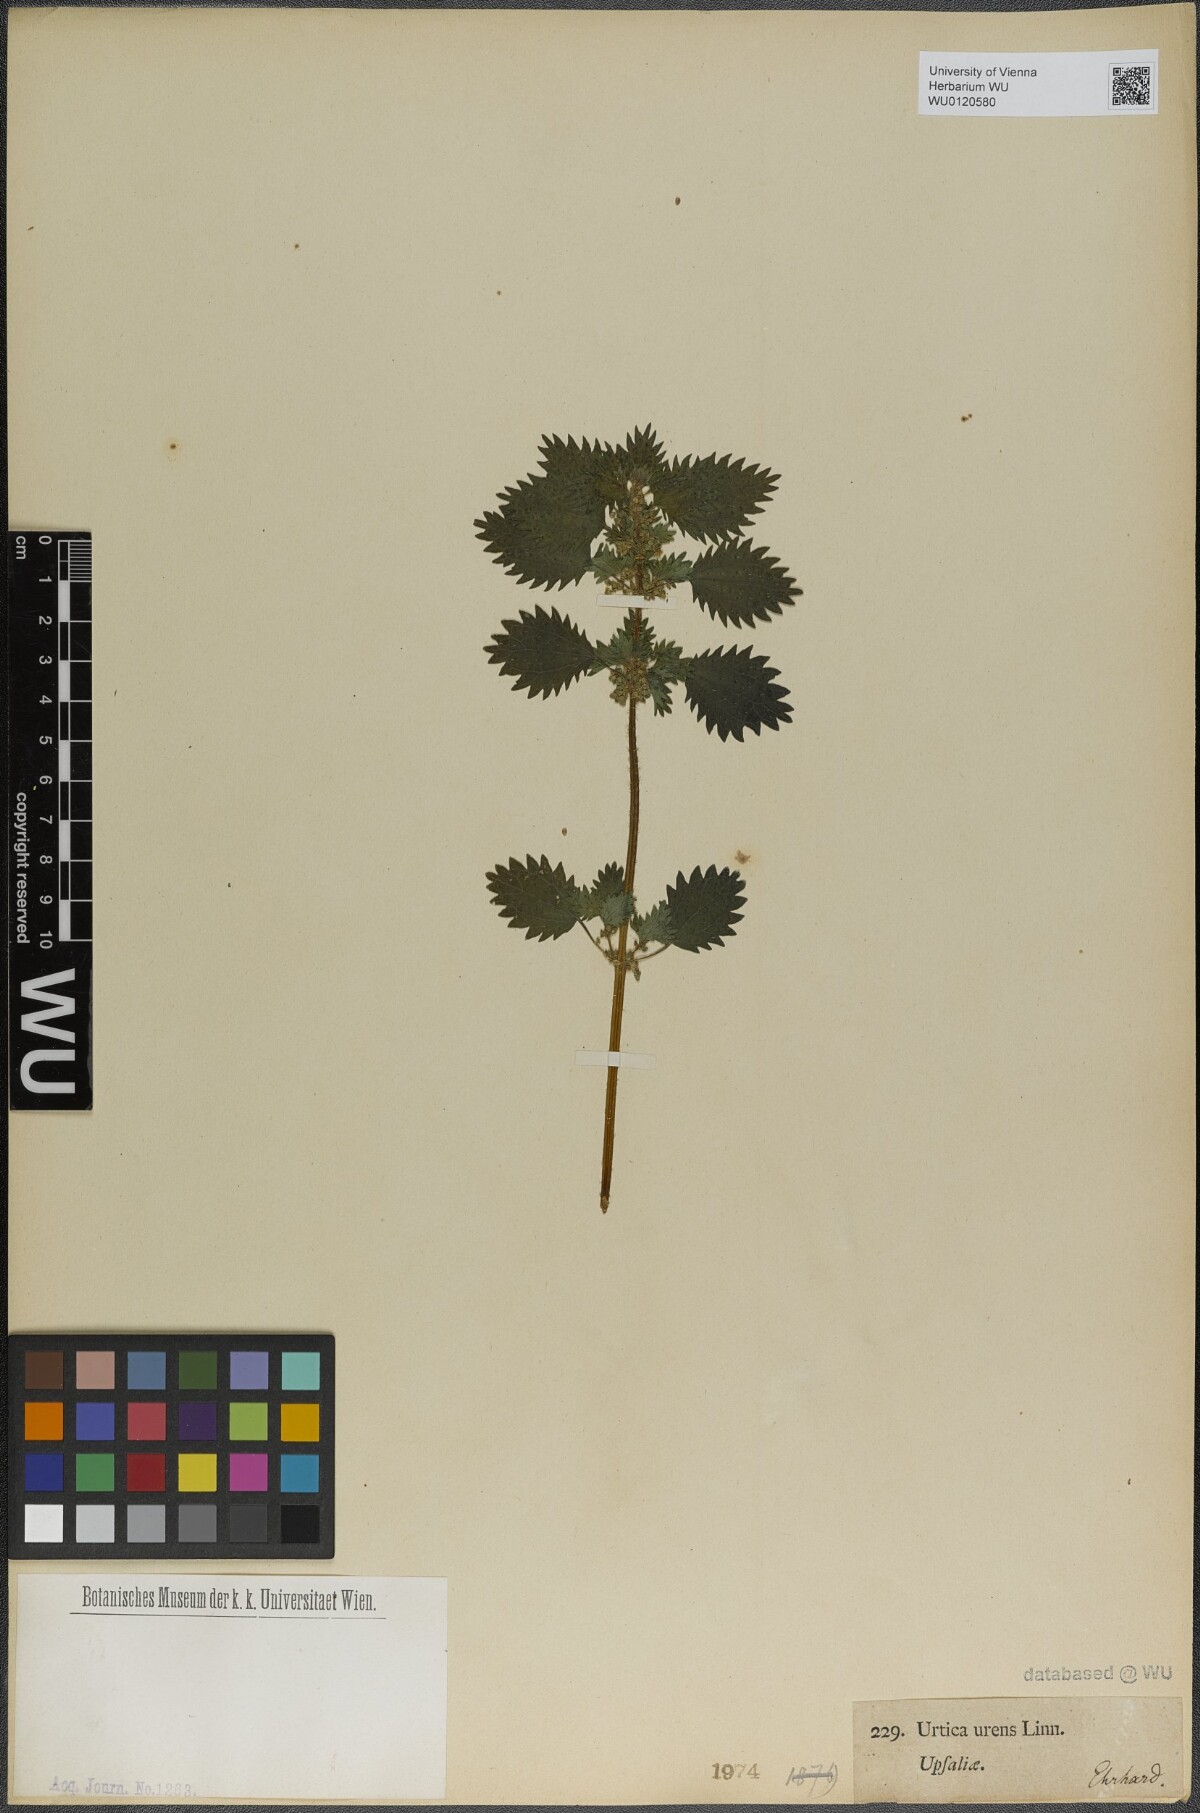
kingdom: Plantae
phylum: Tracheophyta
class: Magnoliopsida
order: Rosales
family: Urticaceae
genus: Urtica
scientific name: Urtica urens
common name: Dwarf nettle
